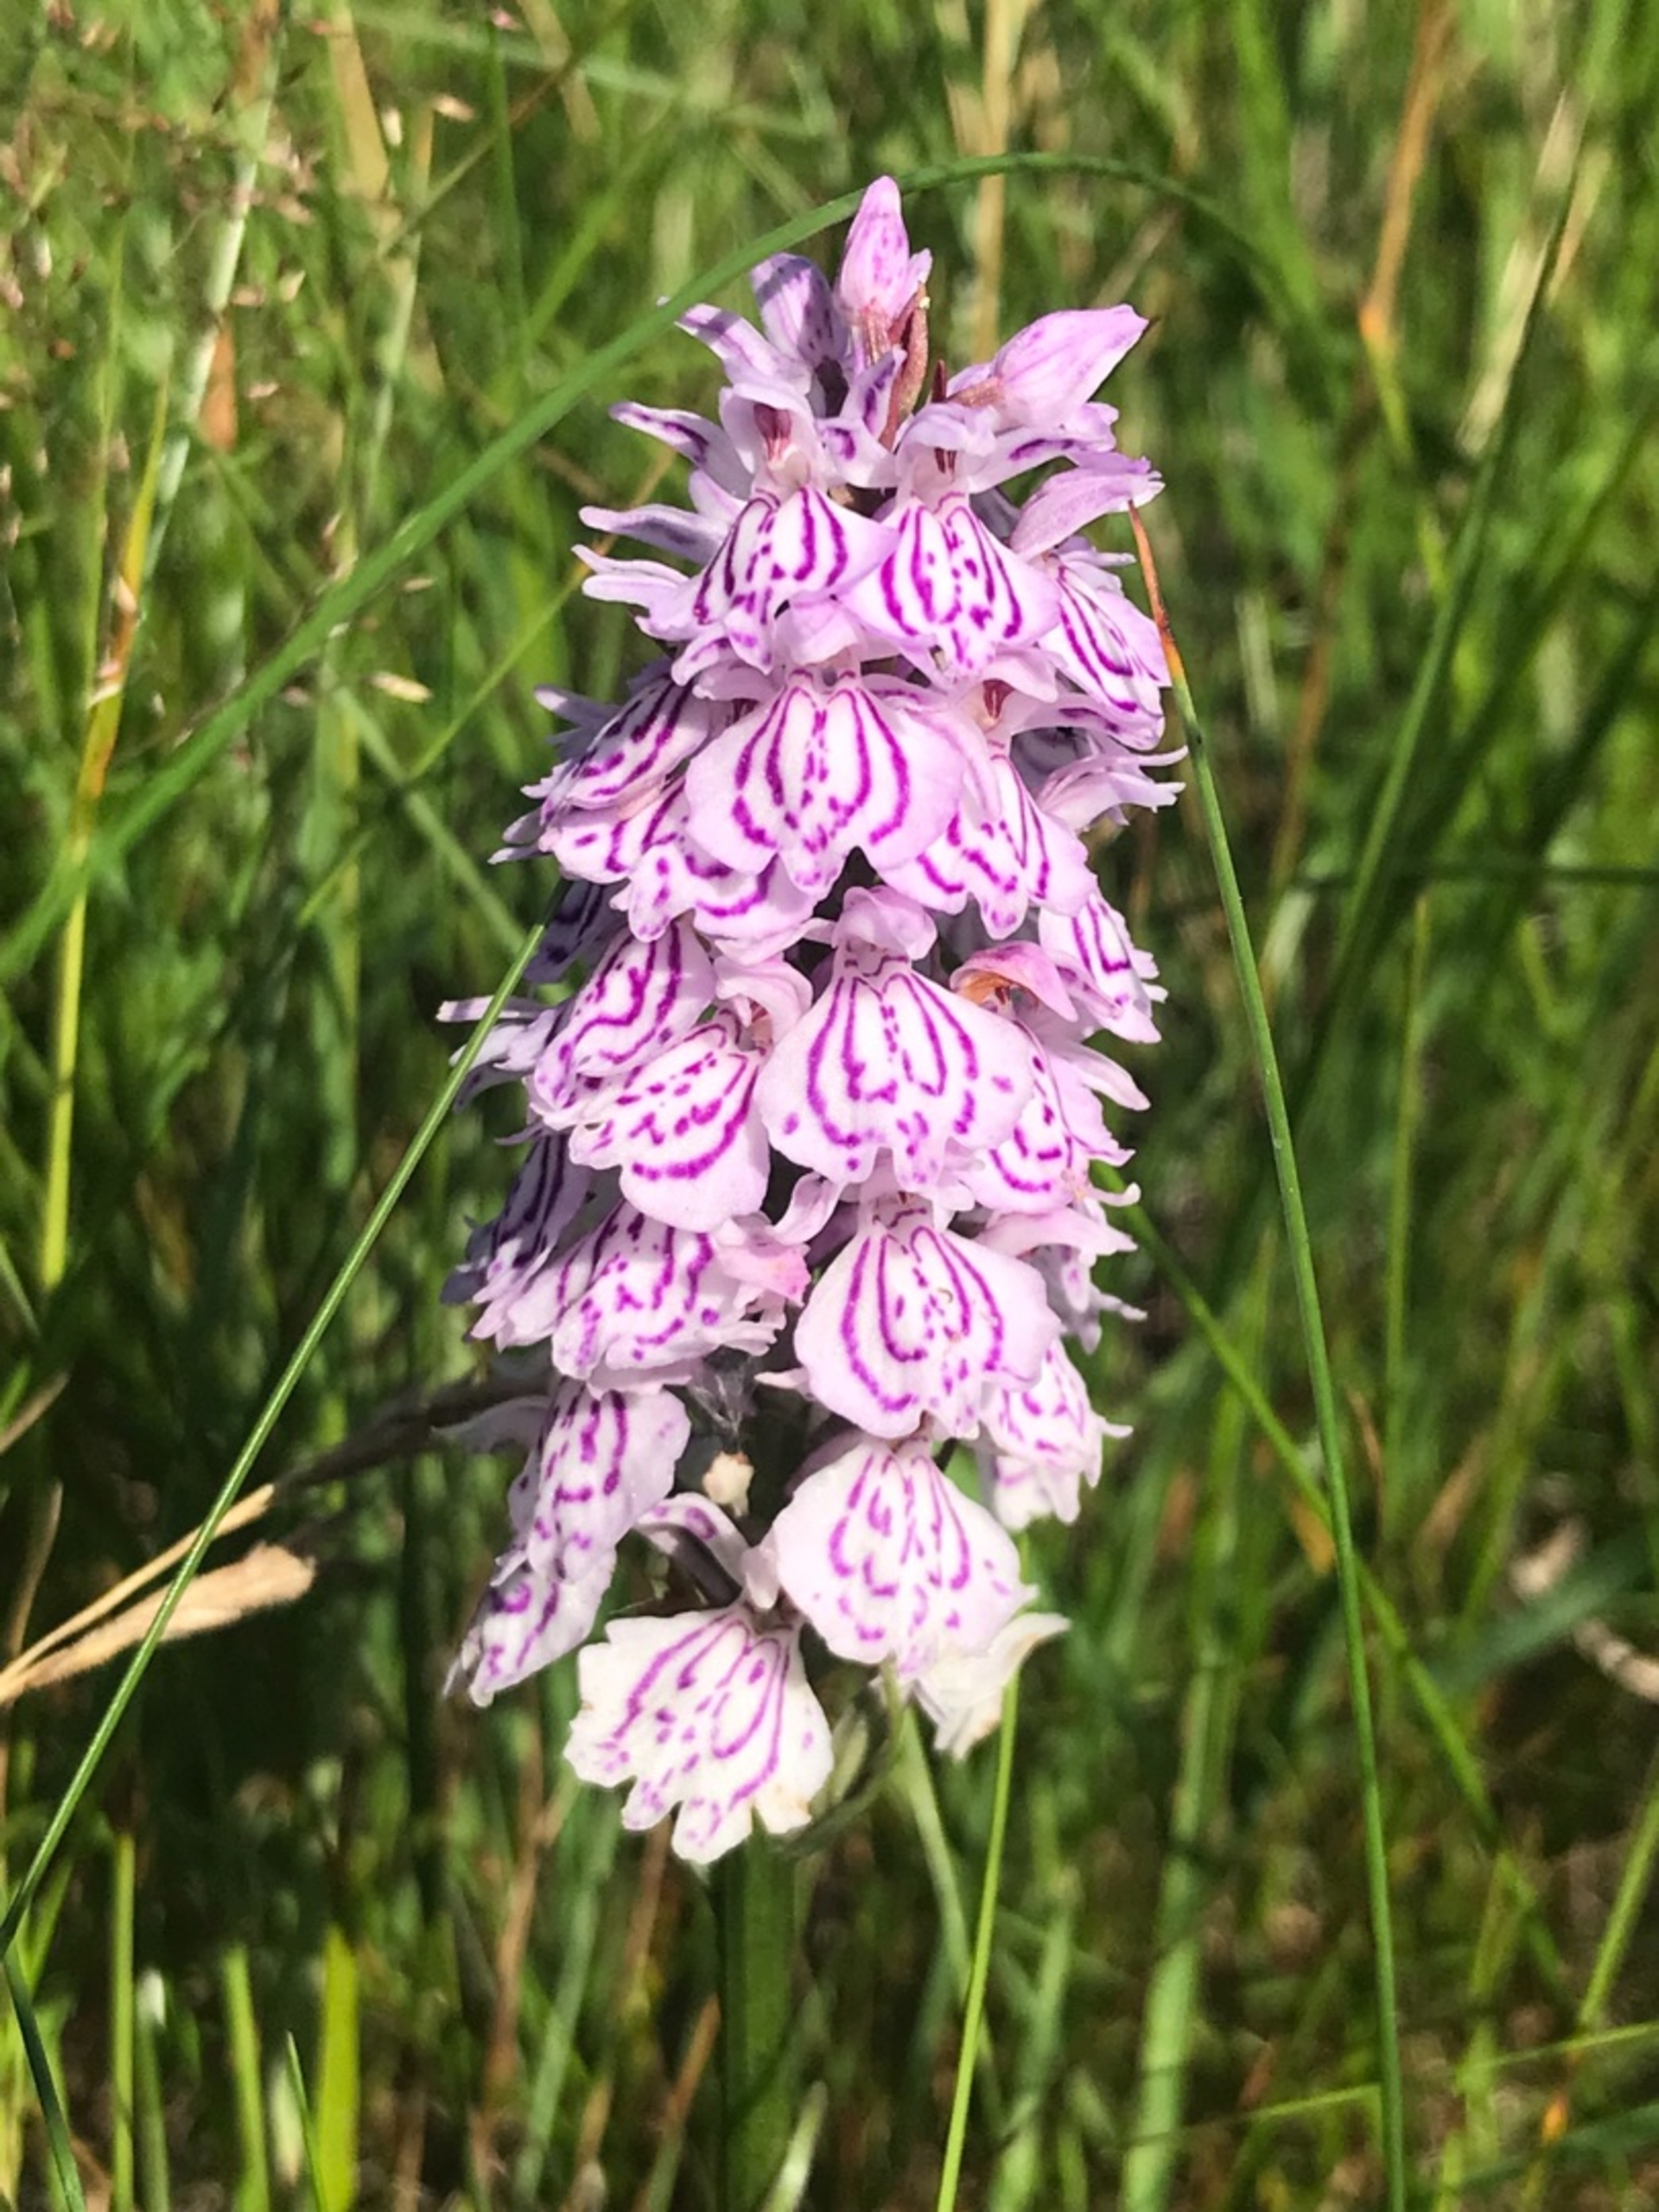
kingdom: Plantae
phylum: Tracheophyta
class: Liliopsida
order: Asparagales
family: Orchidaceae
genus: Dactylorhiza
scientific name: Dactylorhiza maculata
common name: Plettet gøgeurt
